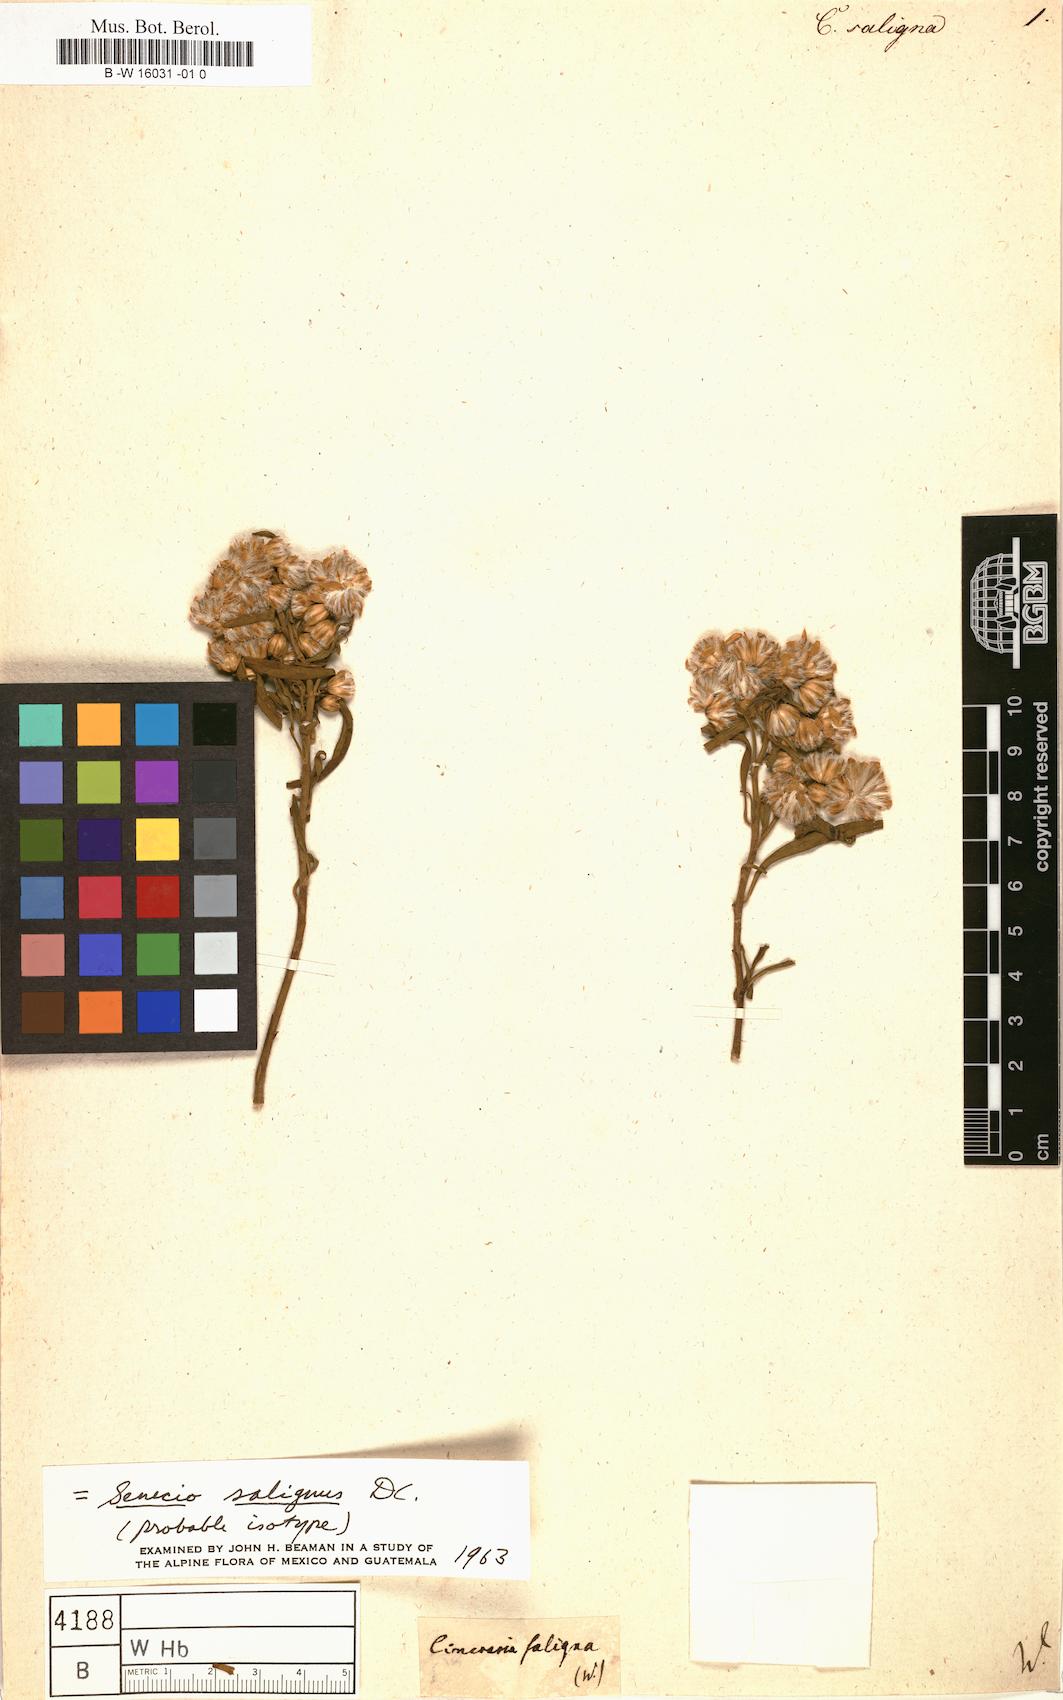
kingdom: Plantae
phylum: Tracheophyta
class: Magnoliopsida
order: Asterales
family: Asteraceae
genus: Cineraria
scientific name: Cineraria
